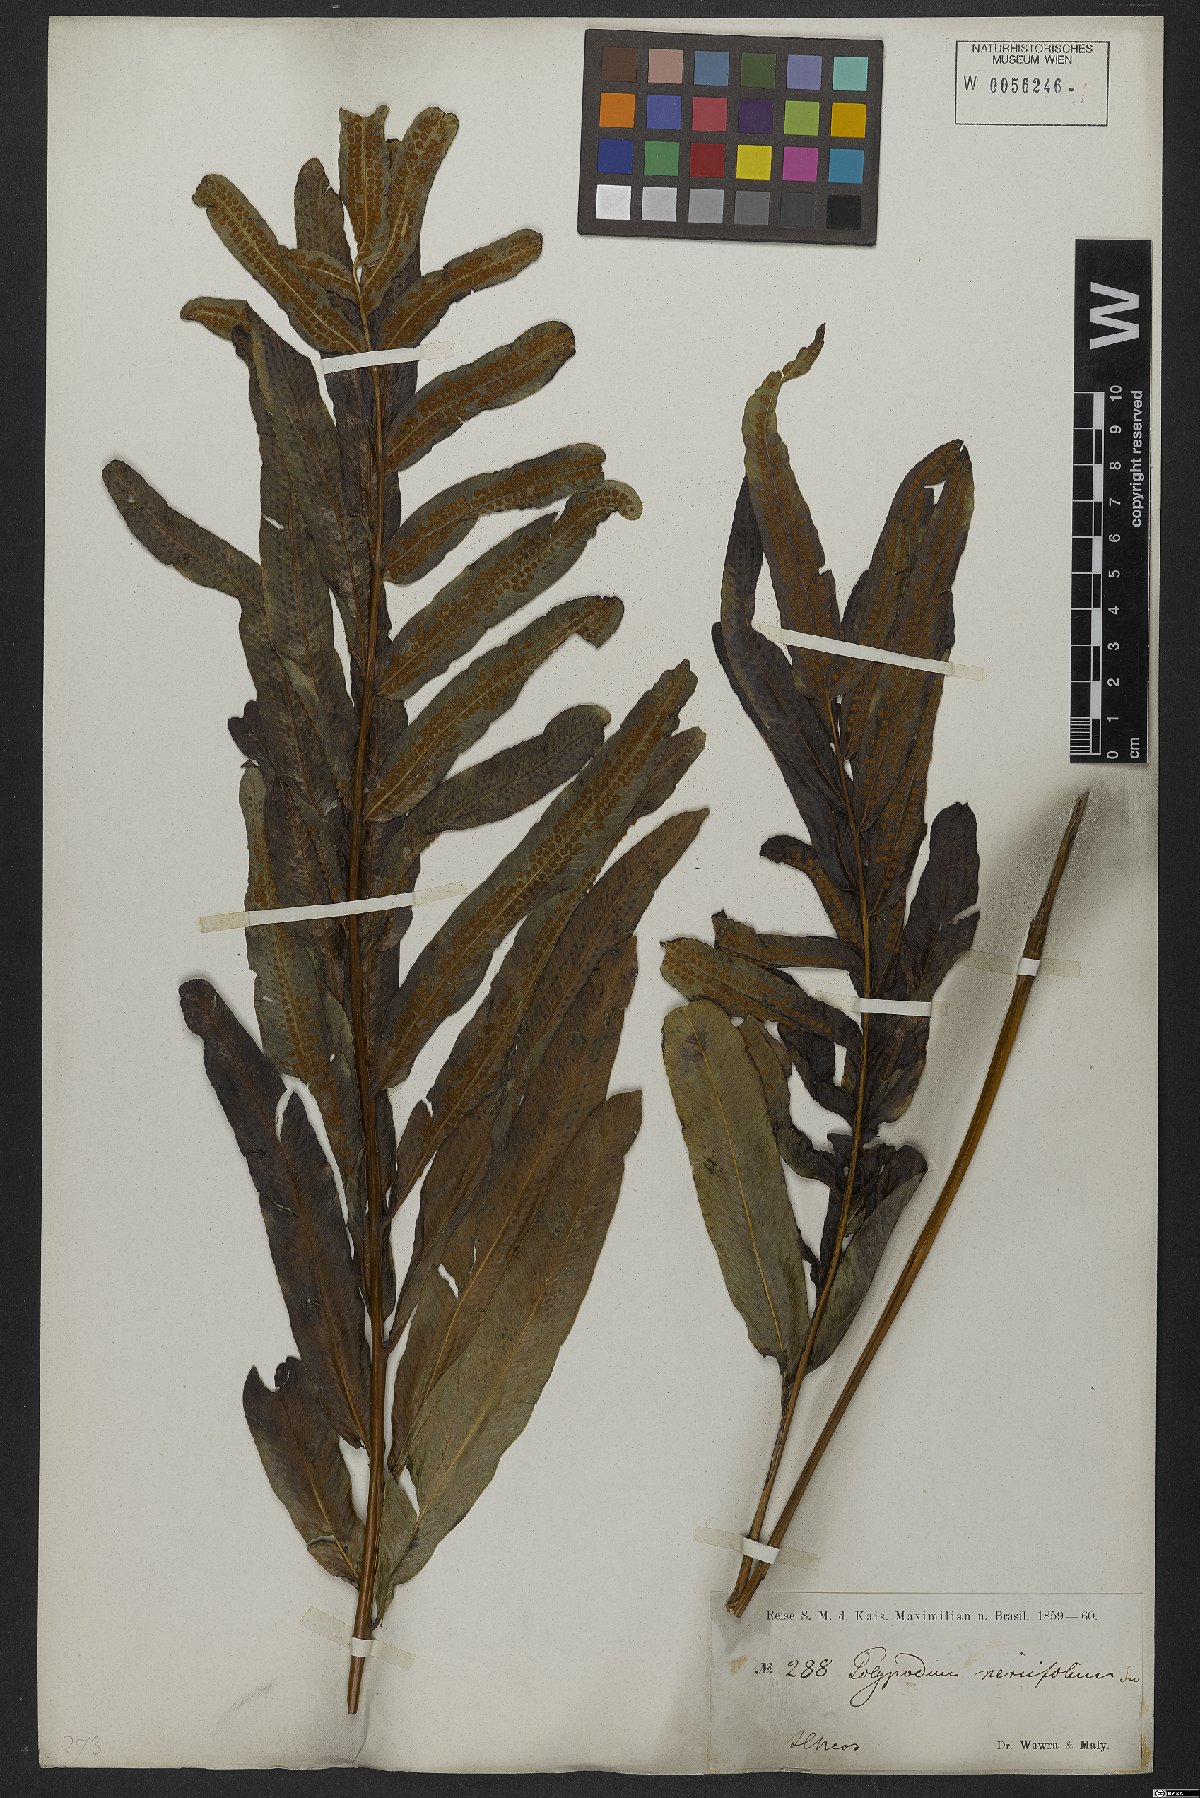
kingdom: Plantae
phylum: Tracheophyta
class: Polypodiopsida
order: Polypodiales
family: Polypodiaceae
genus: Serpocaulon
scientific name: Serpocaulon triseriale
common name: Angle-vein fern
